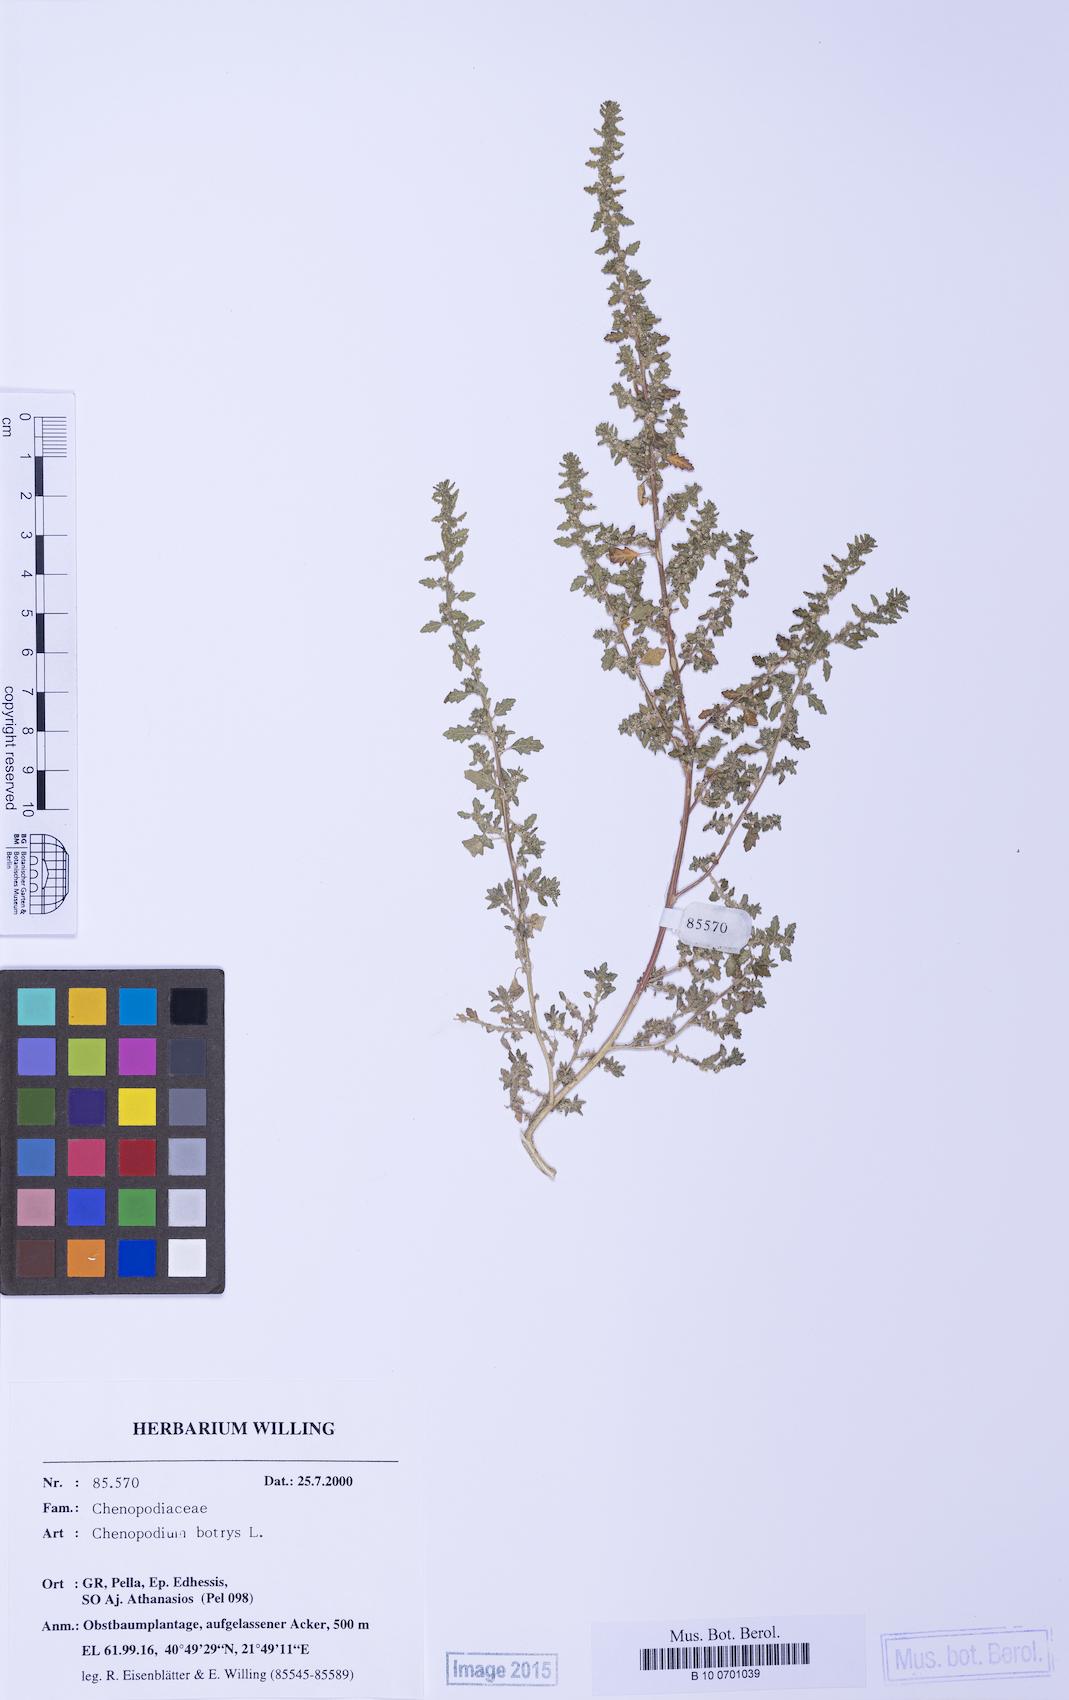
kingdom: Plantae
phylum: Tracheophyta
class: Magnoliopsida
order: Caryophyllales
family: Amaranthaceae
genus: Dysphania
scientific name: Dysphania pumilio
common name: Clammy goosefoot
